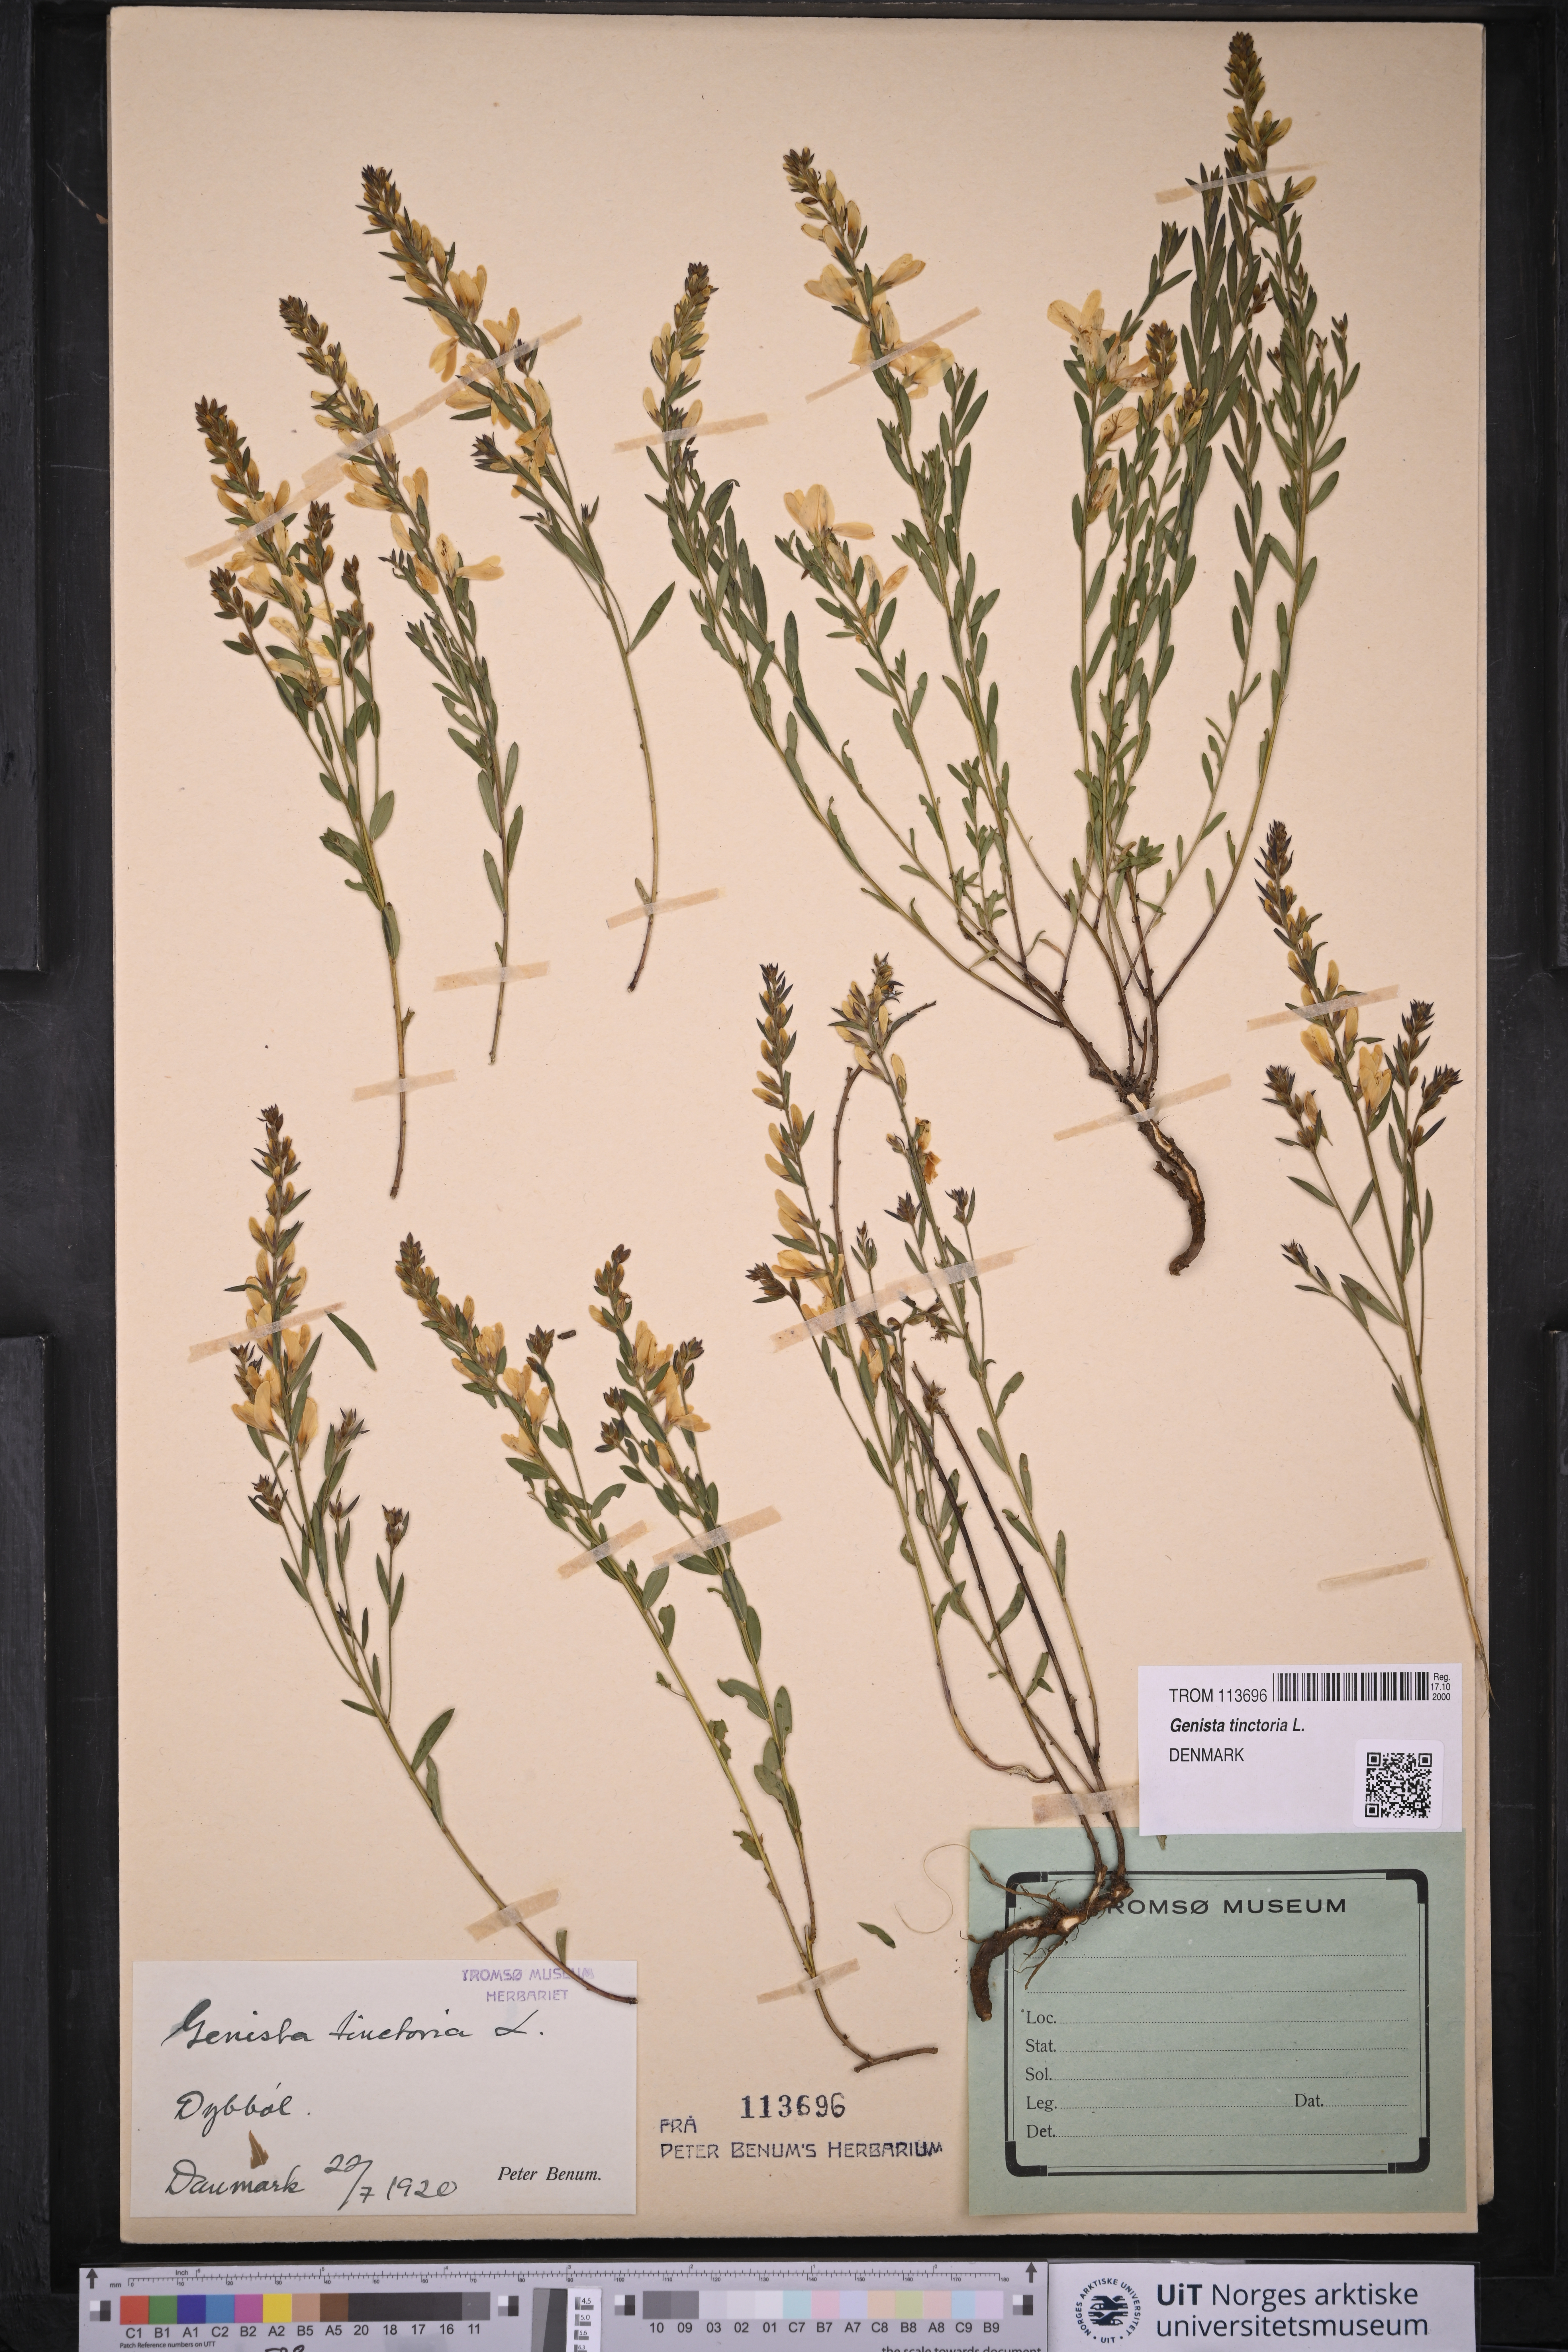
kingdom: Plantae
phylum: Tracheophyta
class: Magnoliopsida
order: Fabales
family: Fabaceae
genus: Genista
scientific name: Genista tinctoria
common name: Dyer's greenweed
